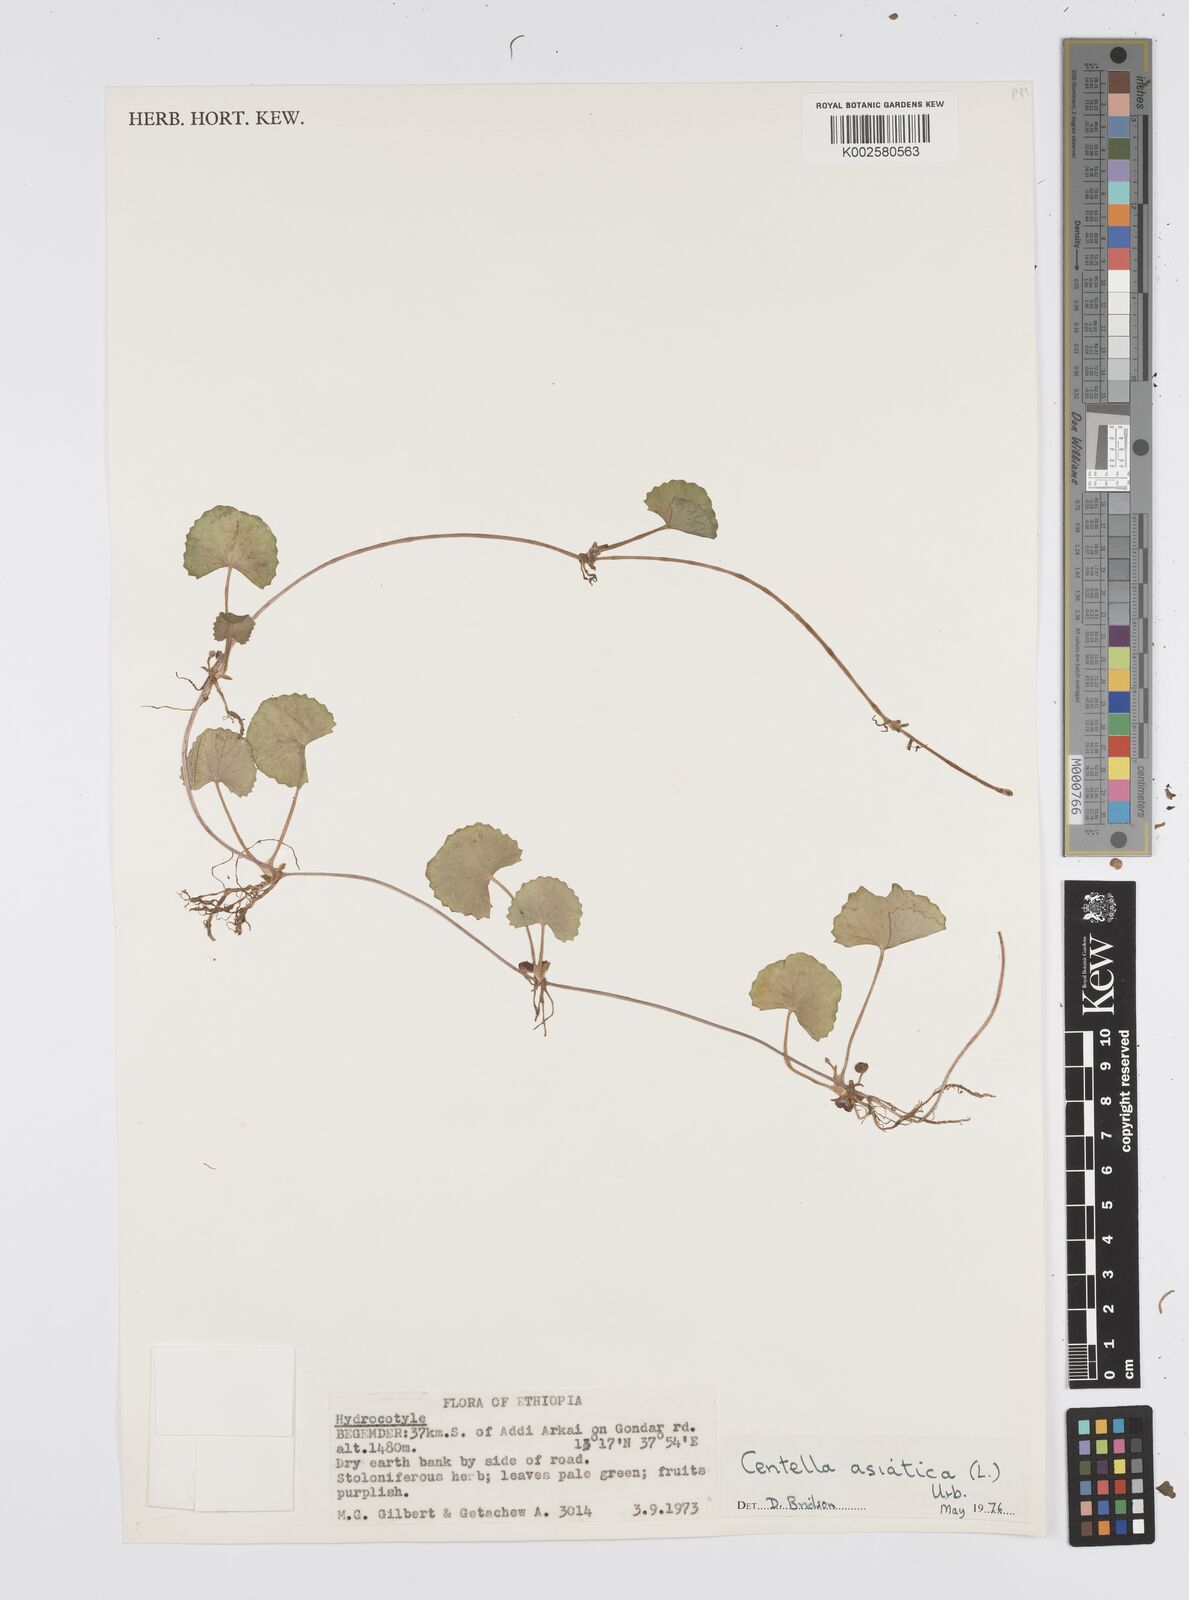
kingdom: Plantae
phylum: Tracheophyta
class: Magnoliopsida
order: Apiales
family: Apiaceae
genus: Centella
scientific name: Centella asiatica
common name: Spadeleaf
